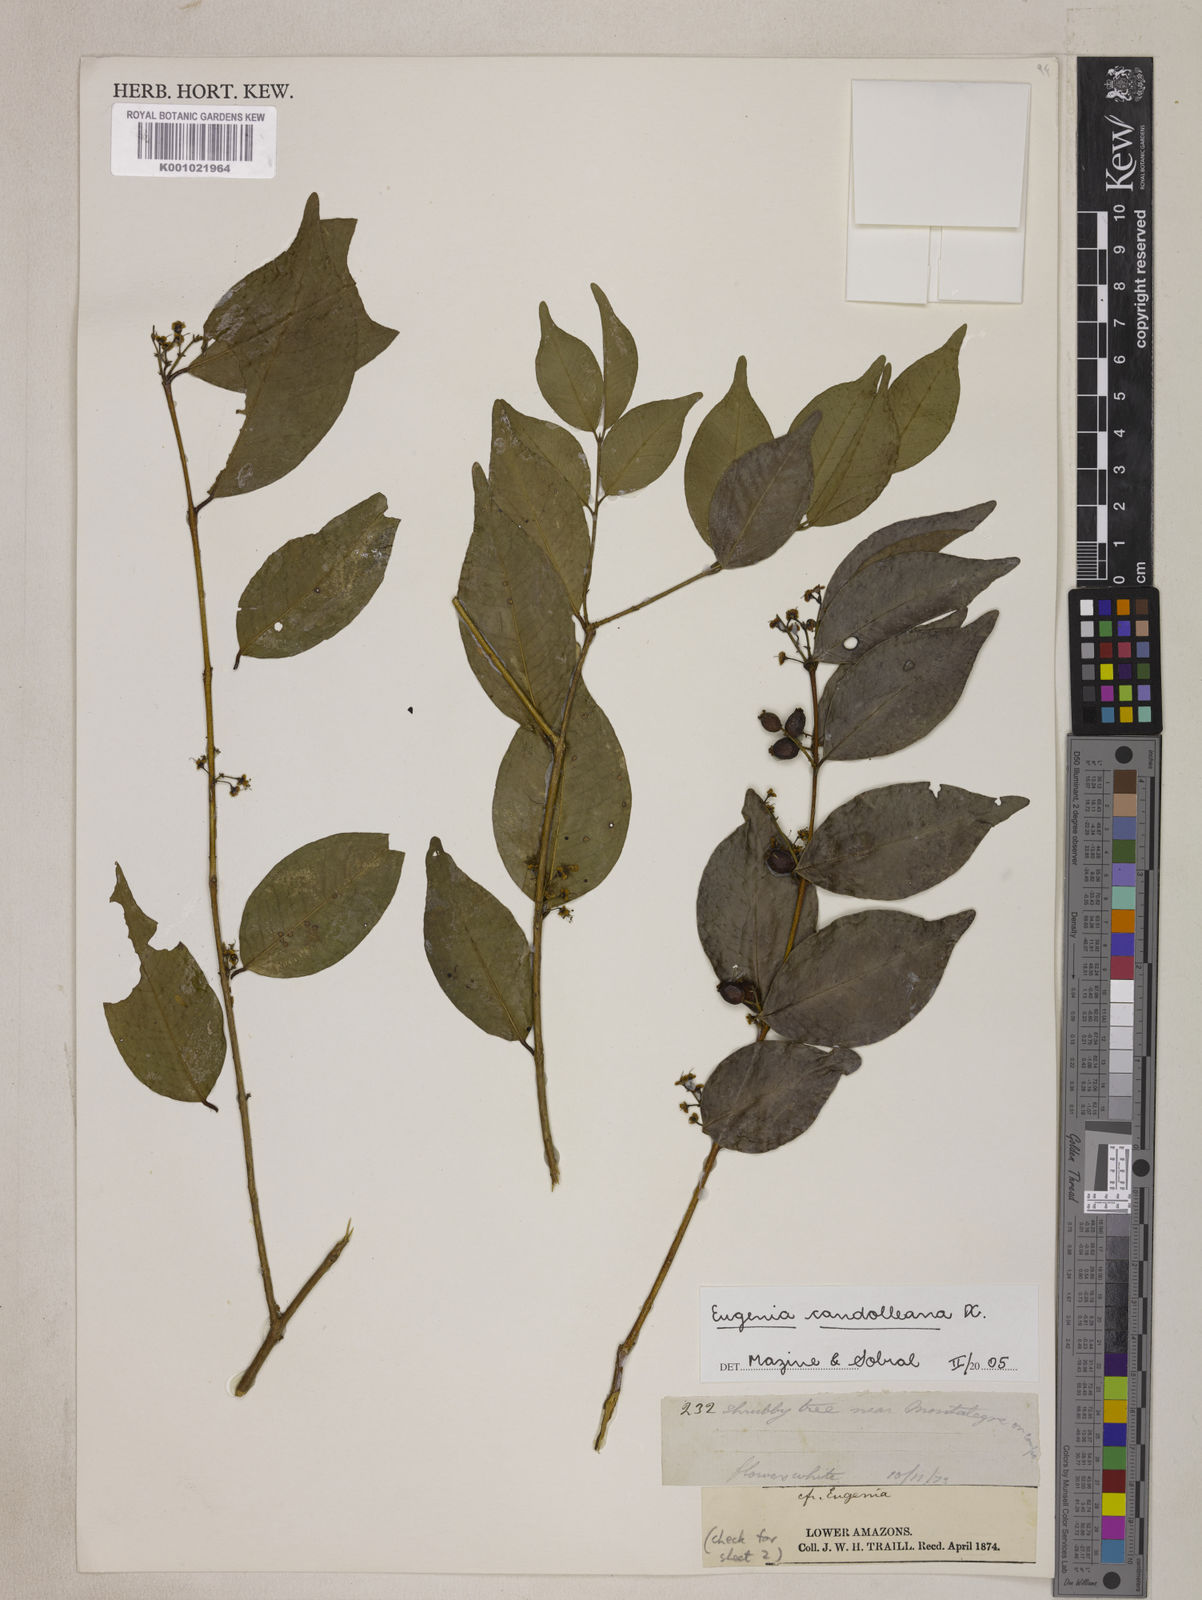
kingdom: Plantae
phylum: Tracheophyta
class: Magnoliopsida
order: Myrtales
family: Myrtaceae
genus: Eugenia
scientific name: Eugenia candolleana
